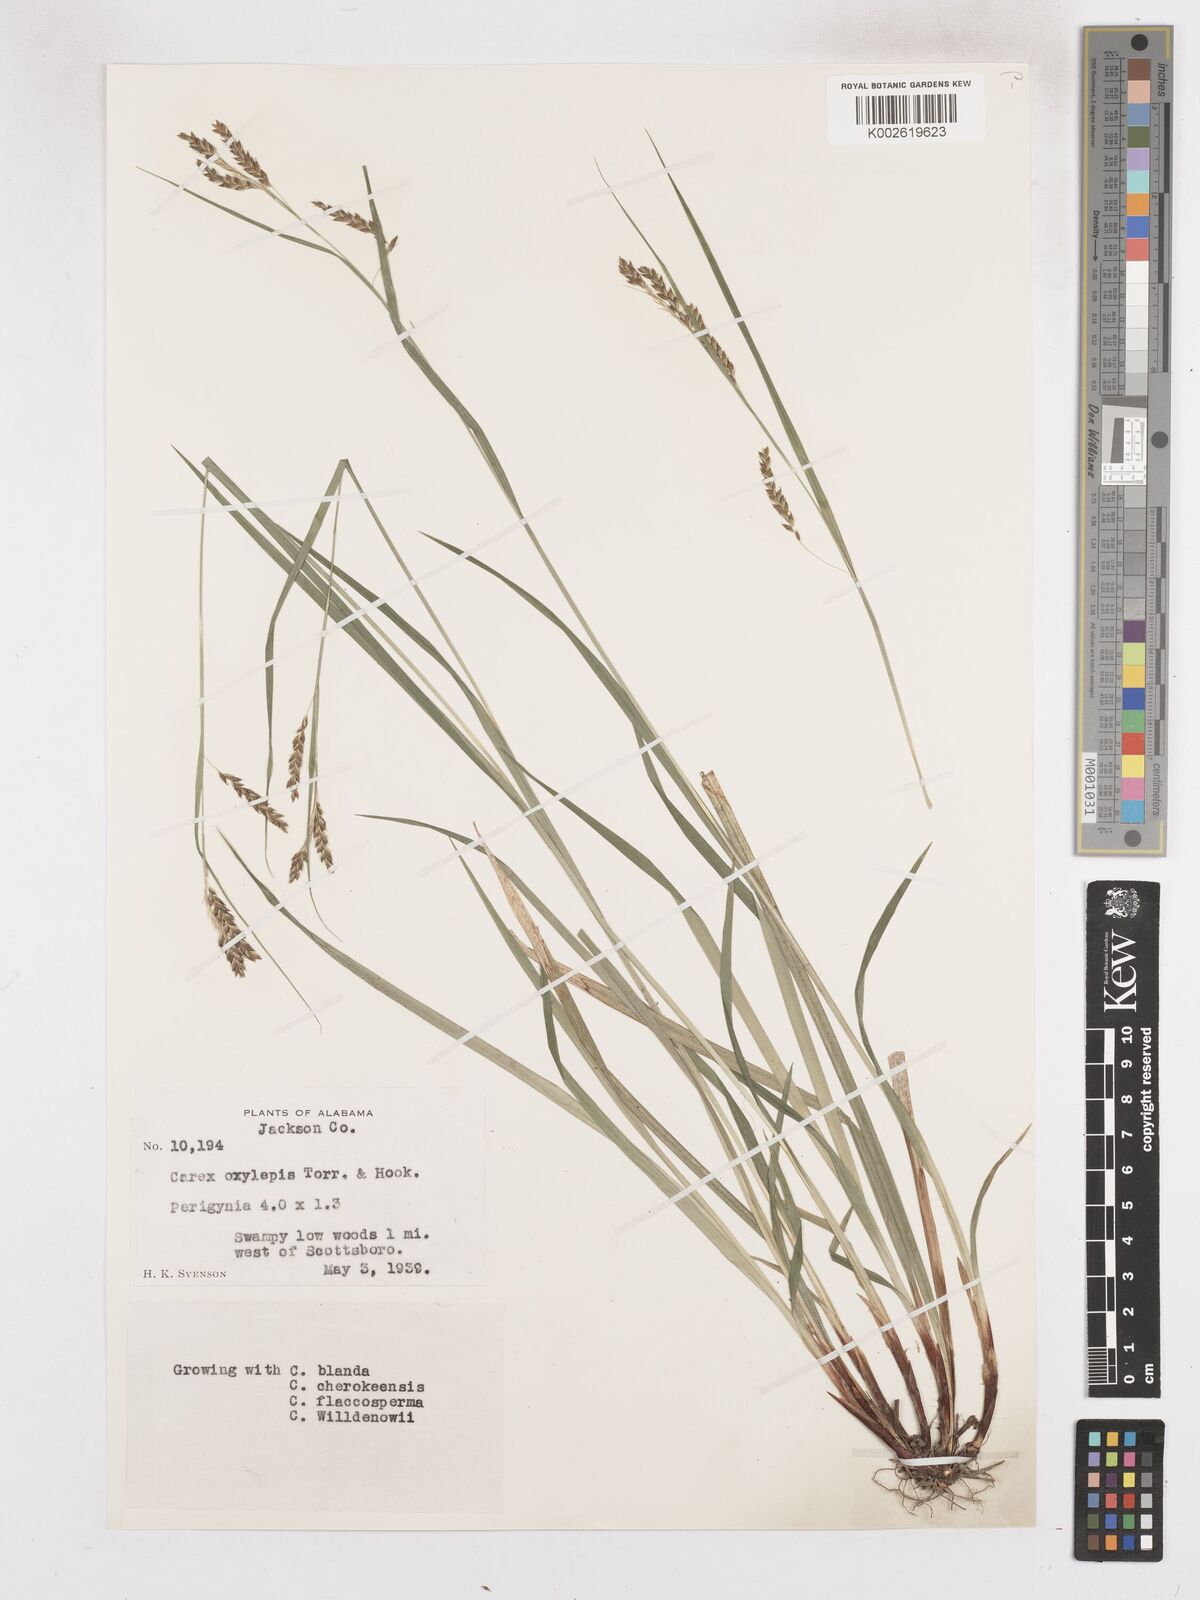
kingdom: Plantae
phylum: Tracheophyta
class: Liliopsida
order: Poales
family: Cyperaceae
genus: Carex
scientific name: Carex oxylepis
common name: Sharpscale sedge
